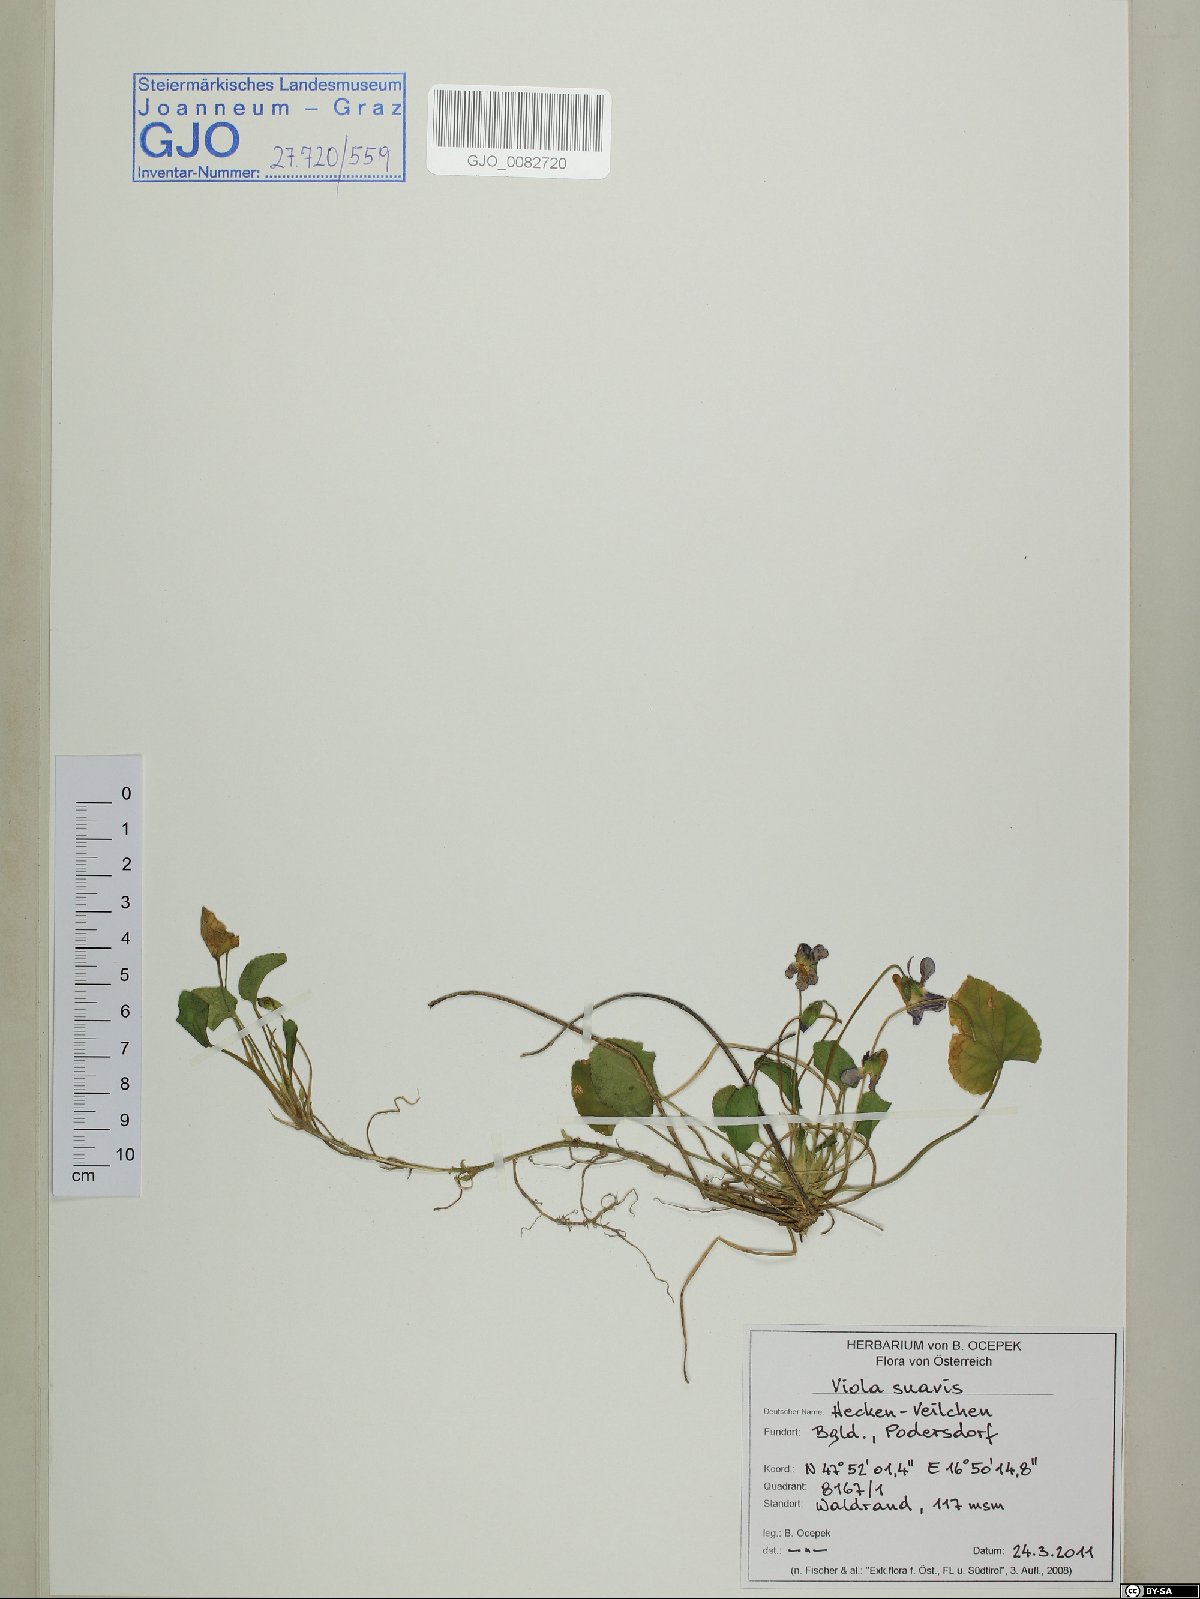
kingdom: Plantae
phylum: Tracheophyta
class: Magnoliopsida
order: Malpighiales
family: Violaceae
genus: Viola
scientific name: Viola suavis
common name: Russian violet
